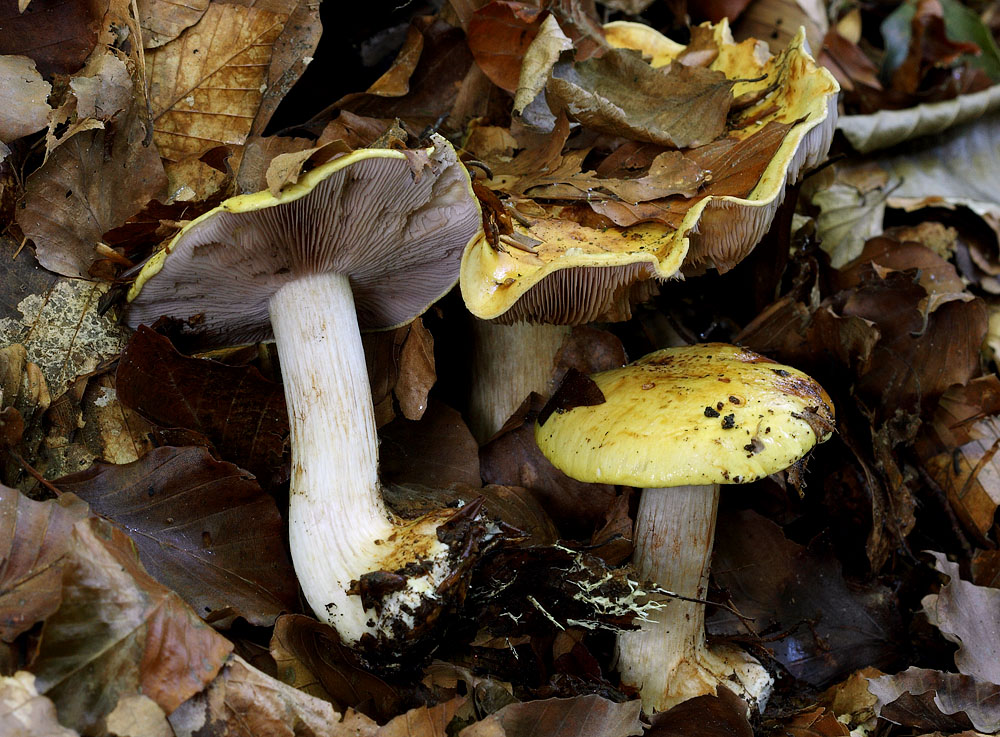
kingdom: Fungi
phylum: Basidiomycota
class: Agaricomycetes
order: Agaricales
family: Cortinariaceae
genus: Calonarius
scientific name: Calonarius callochrous
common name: lillabladet slørhat
